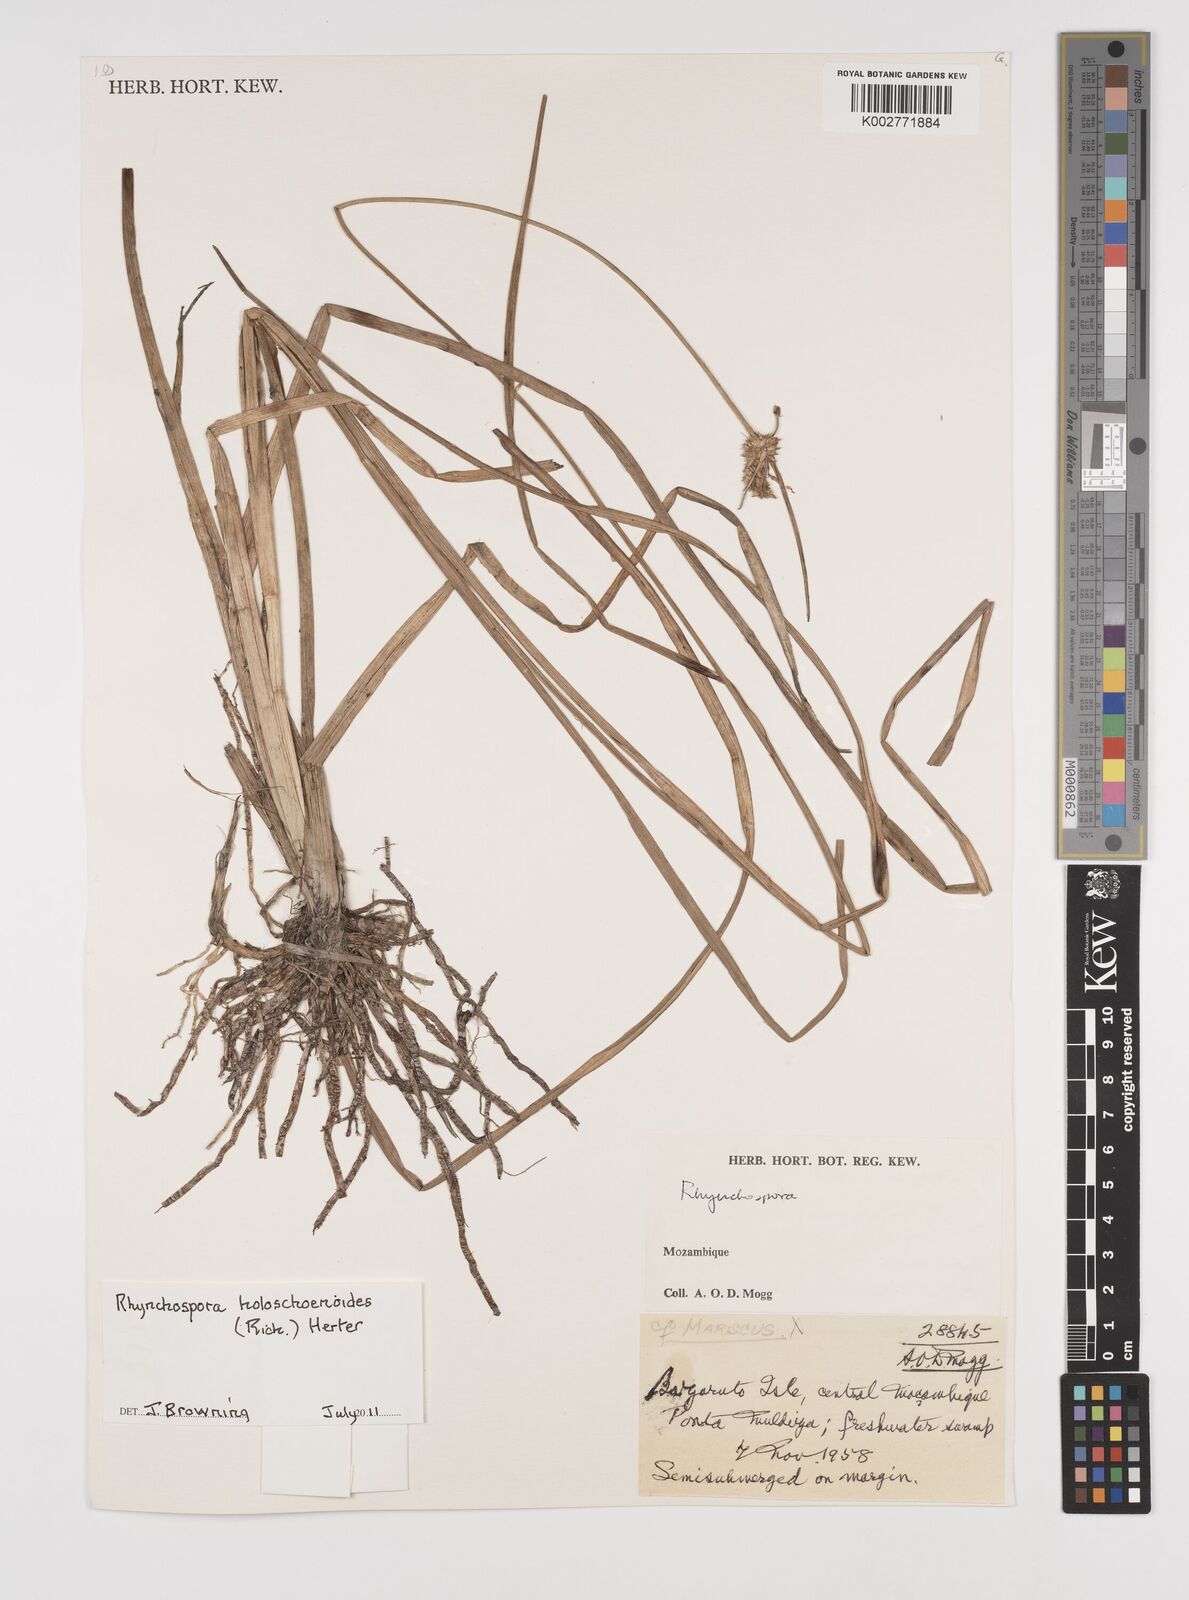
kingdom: Plantae
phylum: Tracheophyta
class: Liliopsida
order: Poales
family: Cyperaceae
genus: Rhynchospora
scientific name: Rhynchospora holoschoenoides
